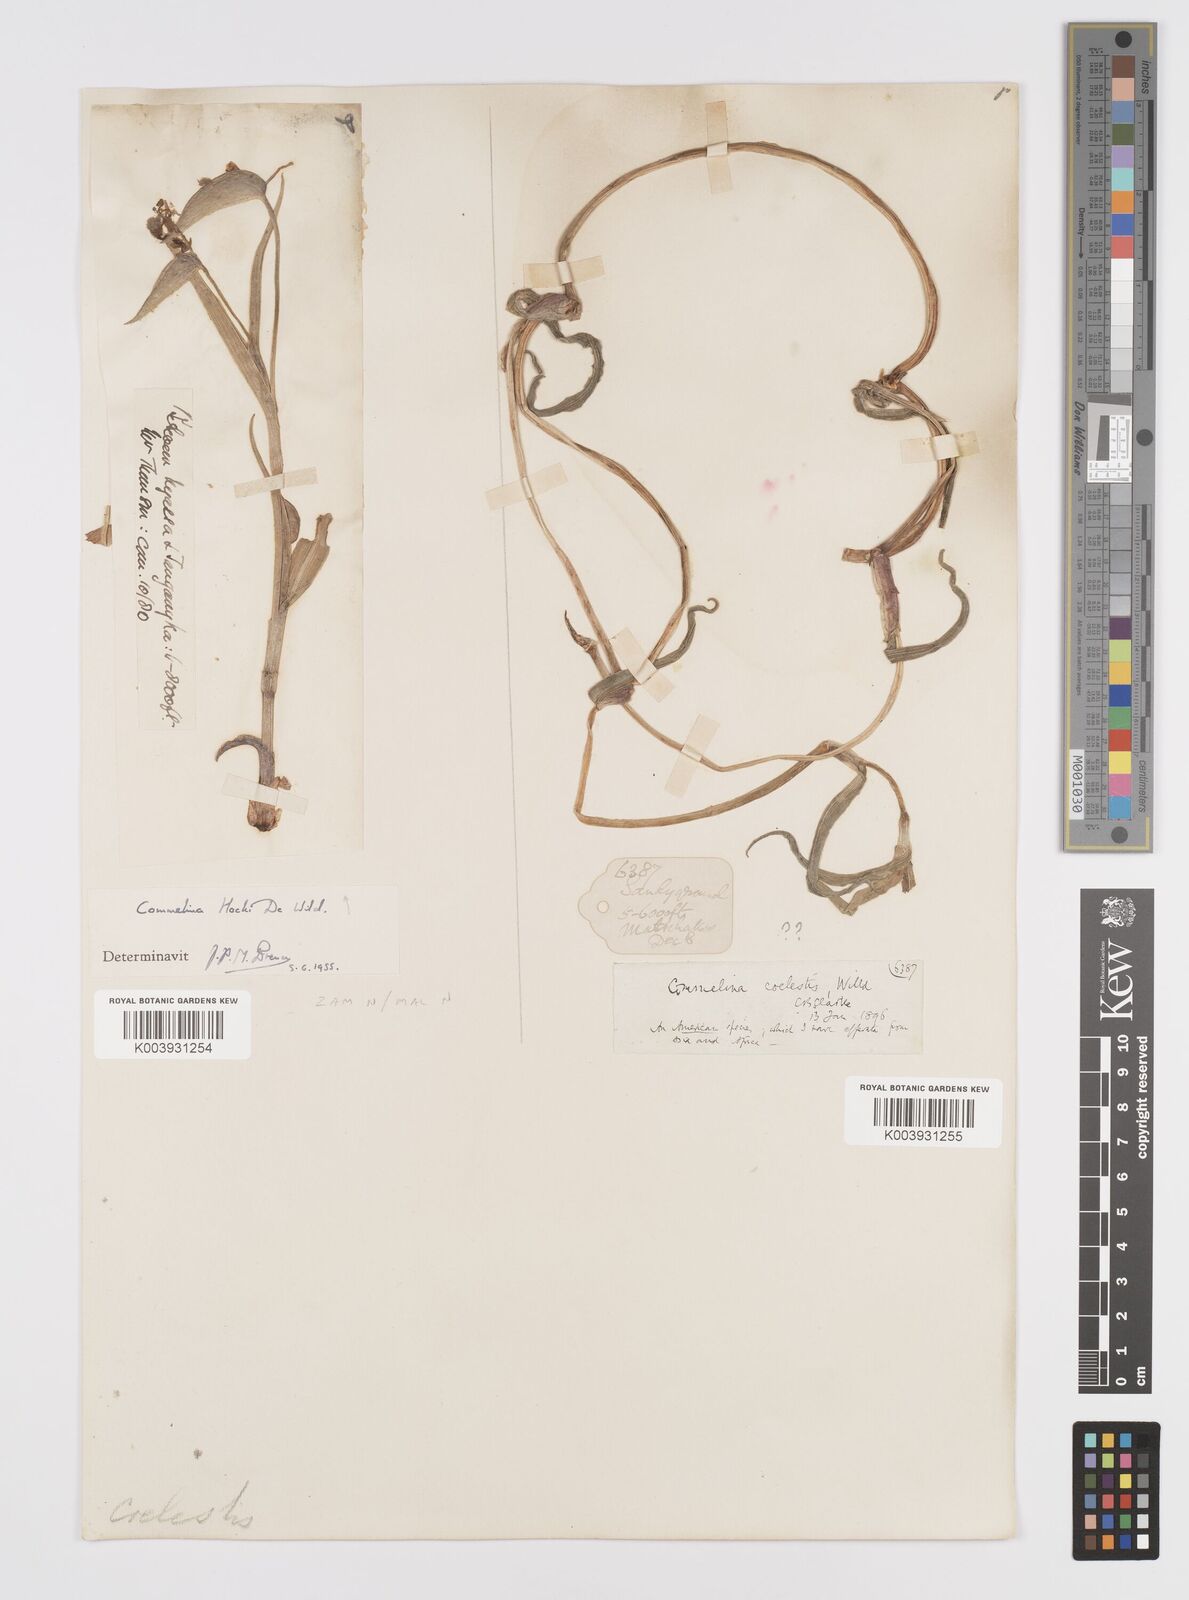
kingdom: Plantae
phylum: Tracheophyta
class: Liliopsida
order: Commelinales
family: Commelinaceae
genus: Commelina
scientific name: Commelina hockii
